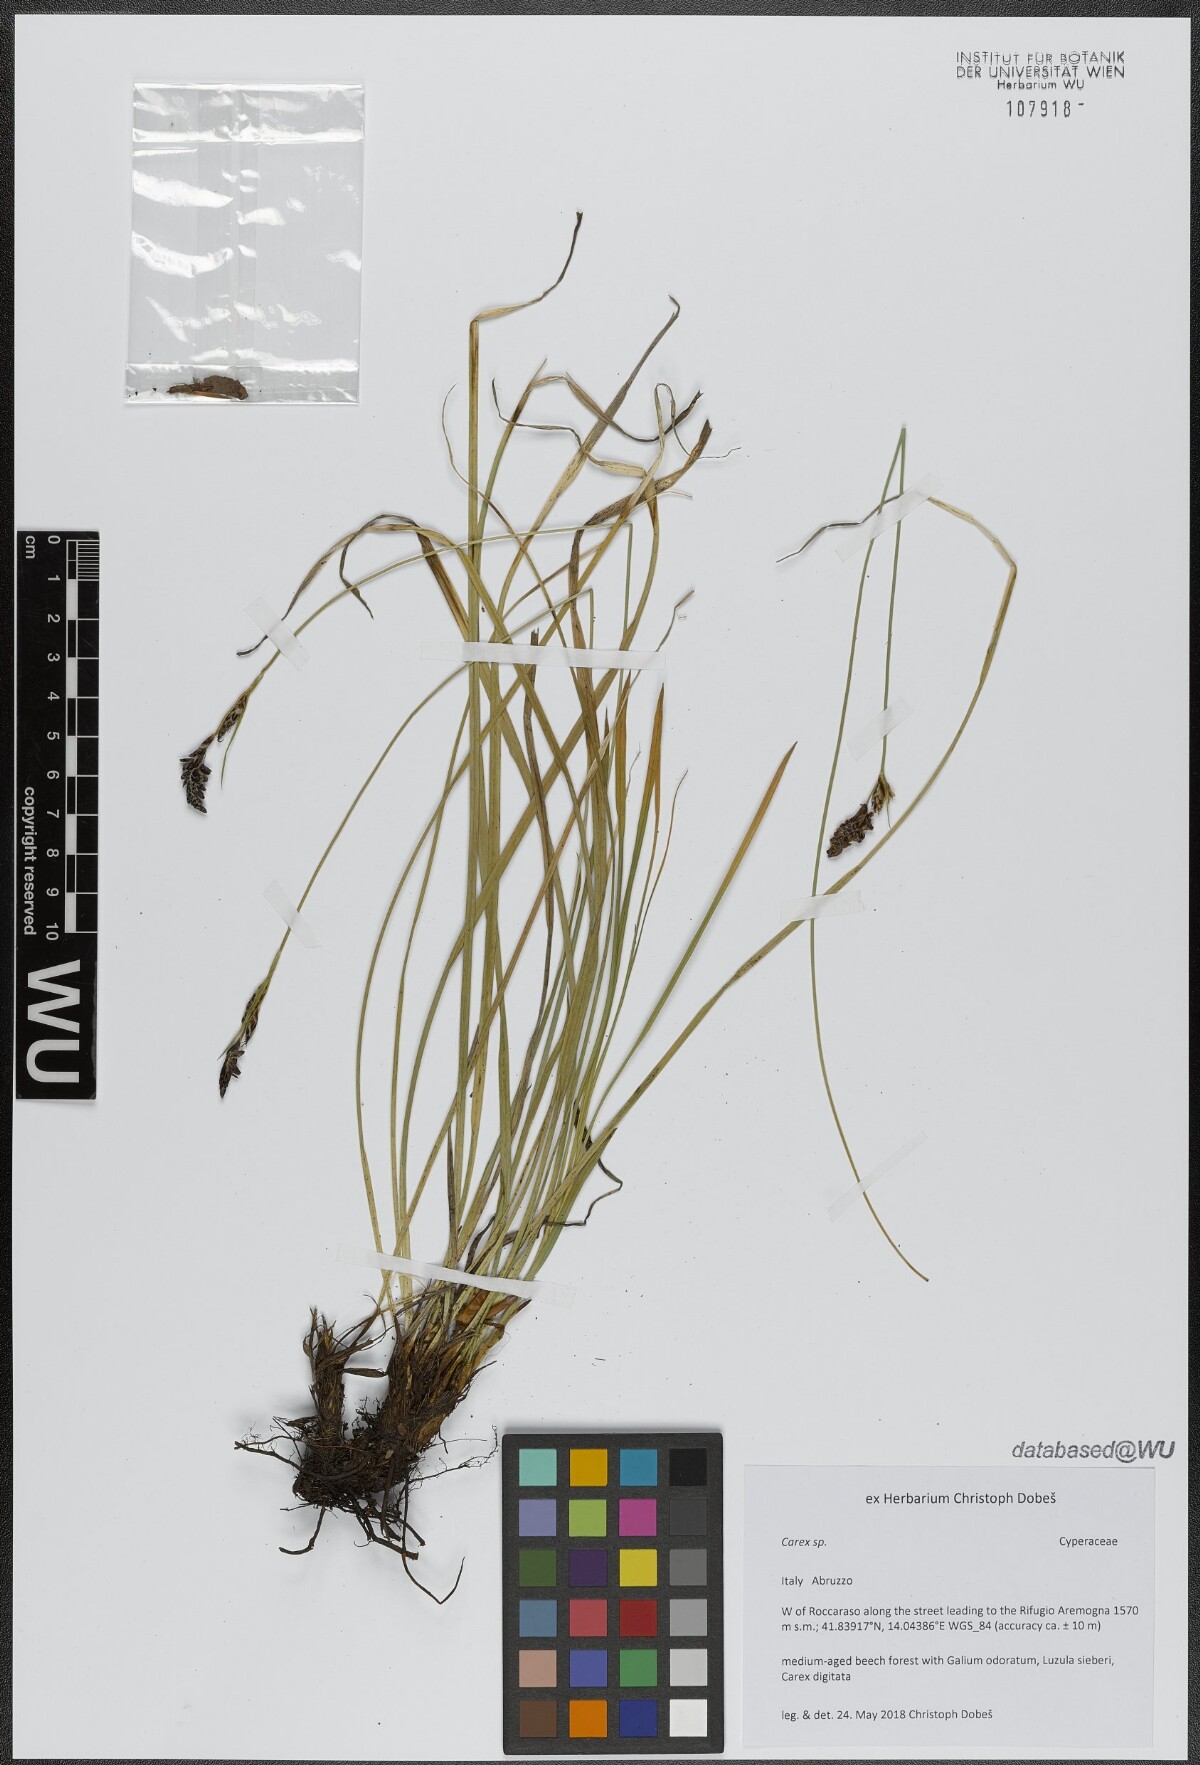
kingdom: Plantae
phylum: Tracheophyta
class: Liliopsida
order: Poales
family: Cyperaceae
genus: Carex
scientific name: Carex
